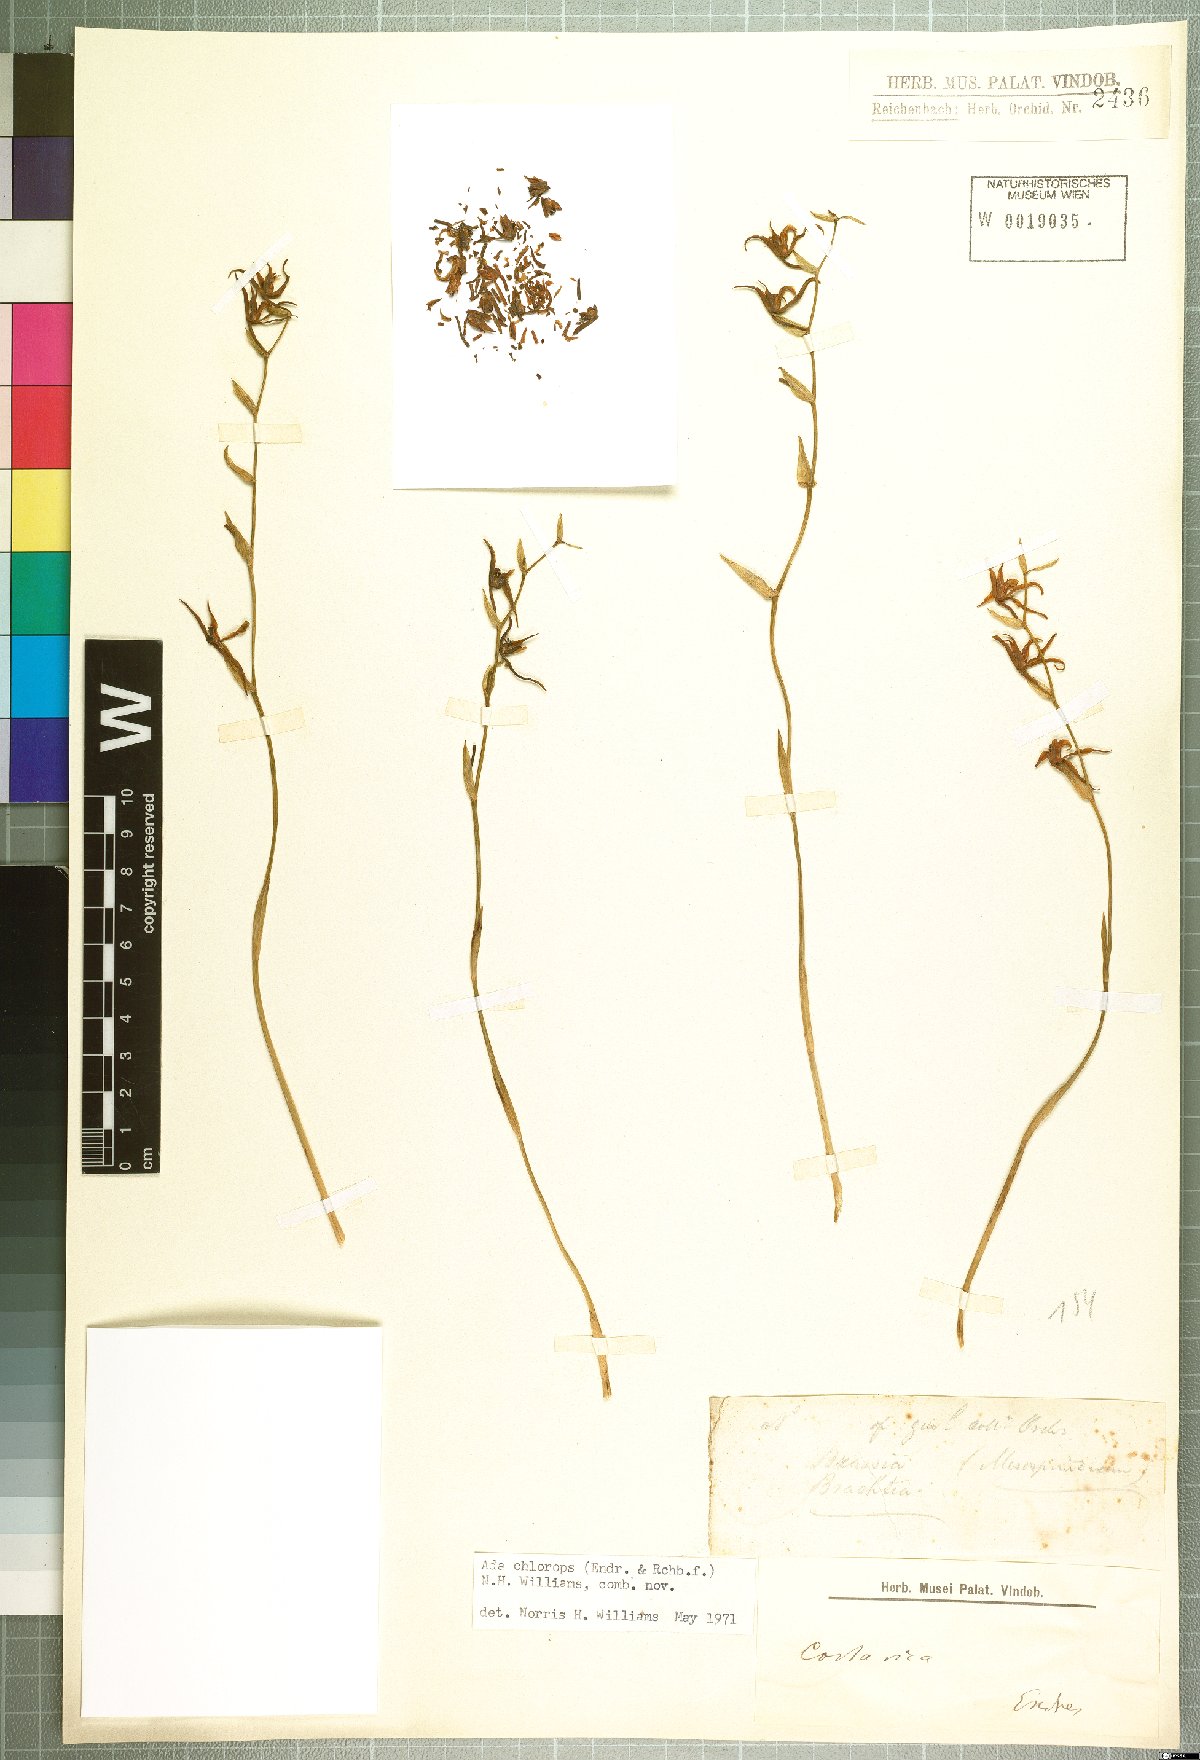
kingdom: Plantae
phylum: Tracheophyta
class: Liliopsida
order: Asparagales
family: Orchidaceae
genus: Brassia
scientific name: Brassia chlorops
